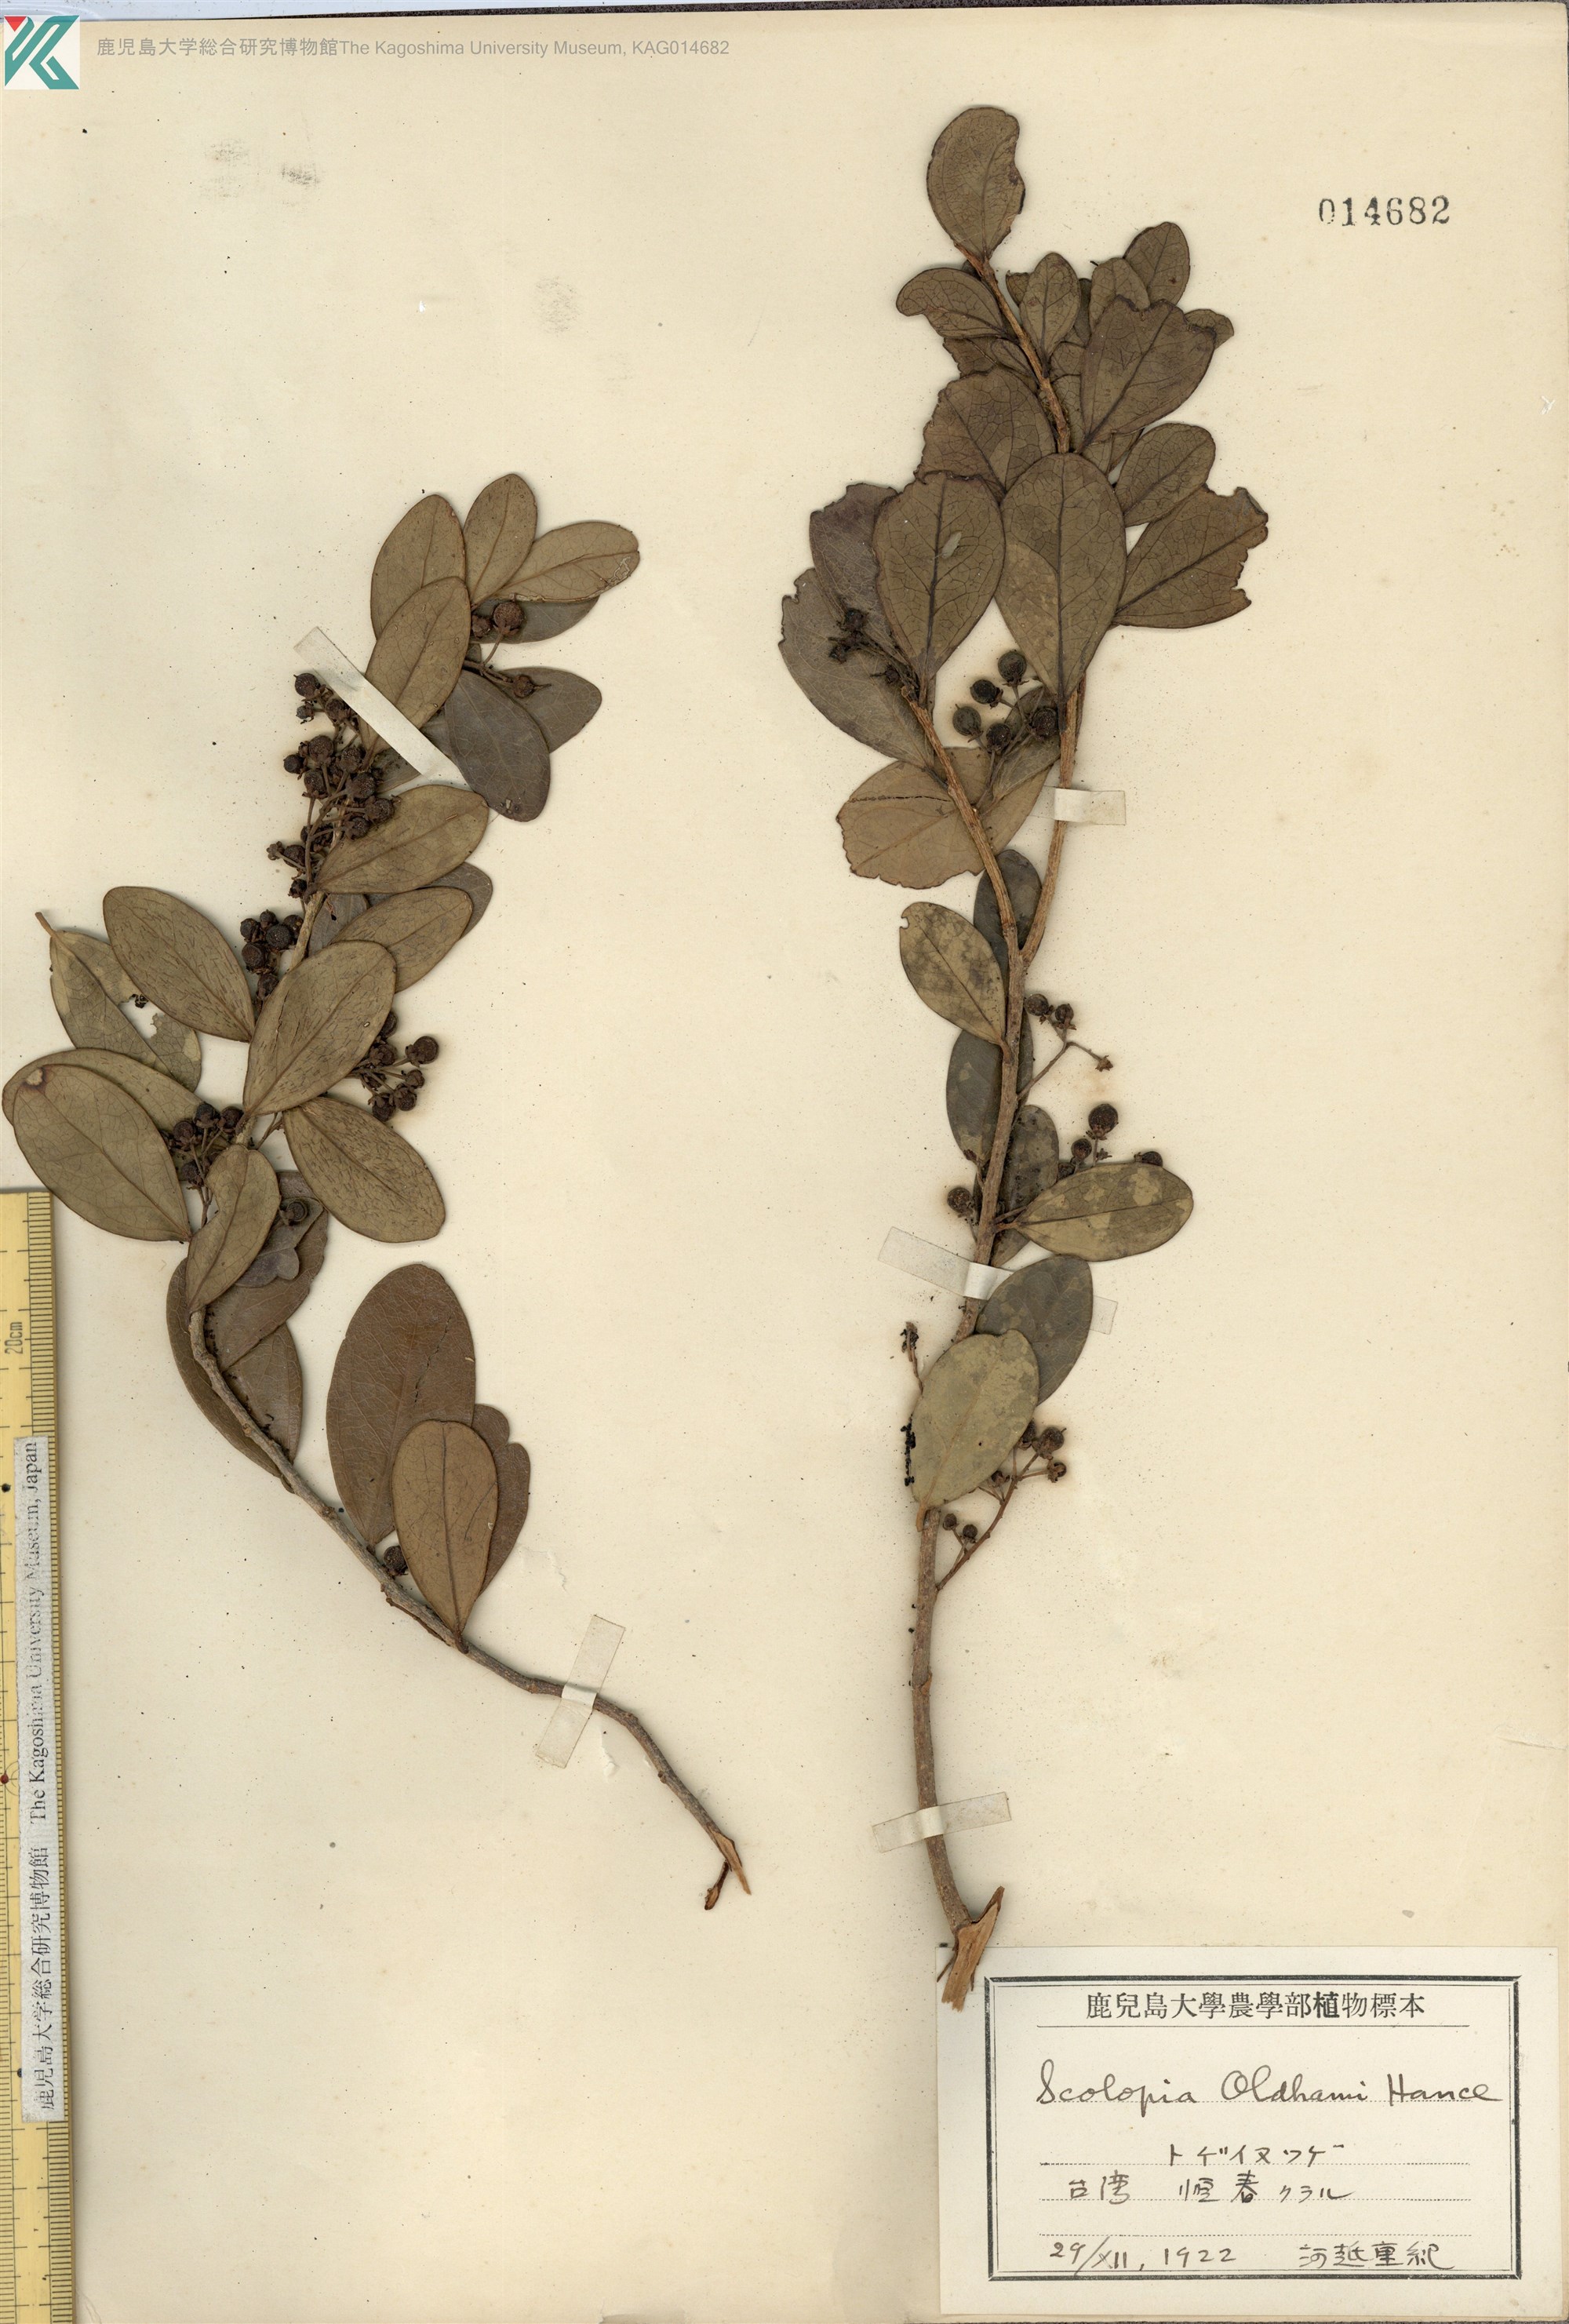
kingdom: Plantae
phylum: Tracheophyta
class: Magnoliopsida
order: Malpighiales
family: Salicaceae
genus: Scolopia
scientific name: Scolopia oldhamii
